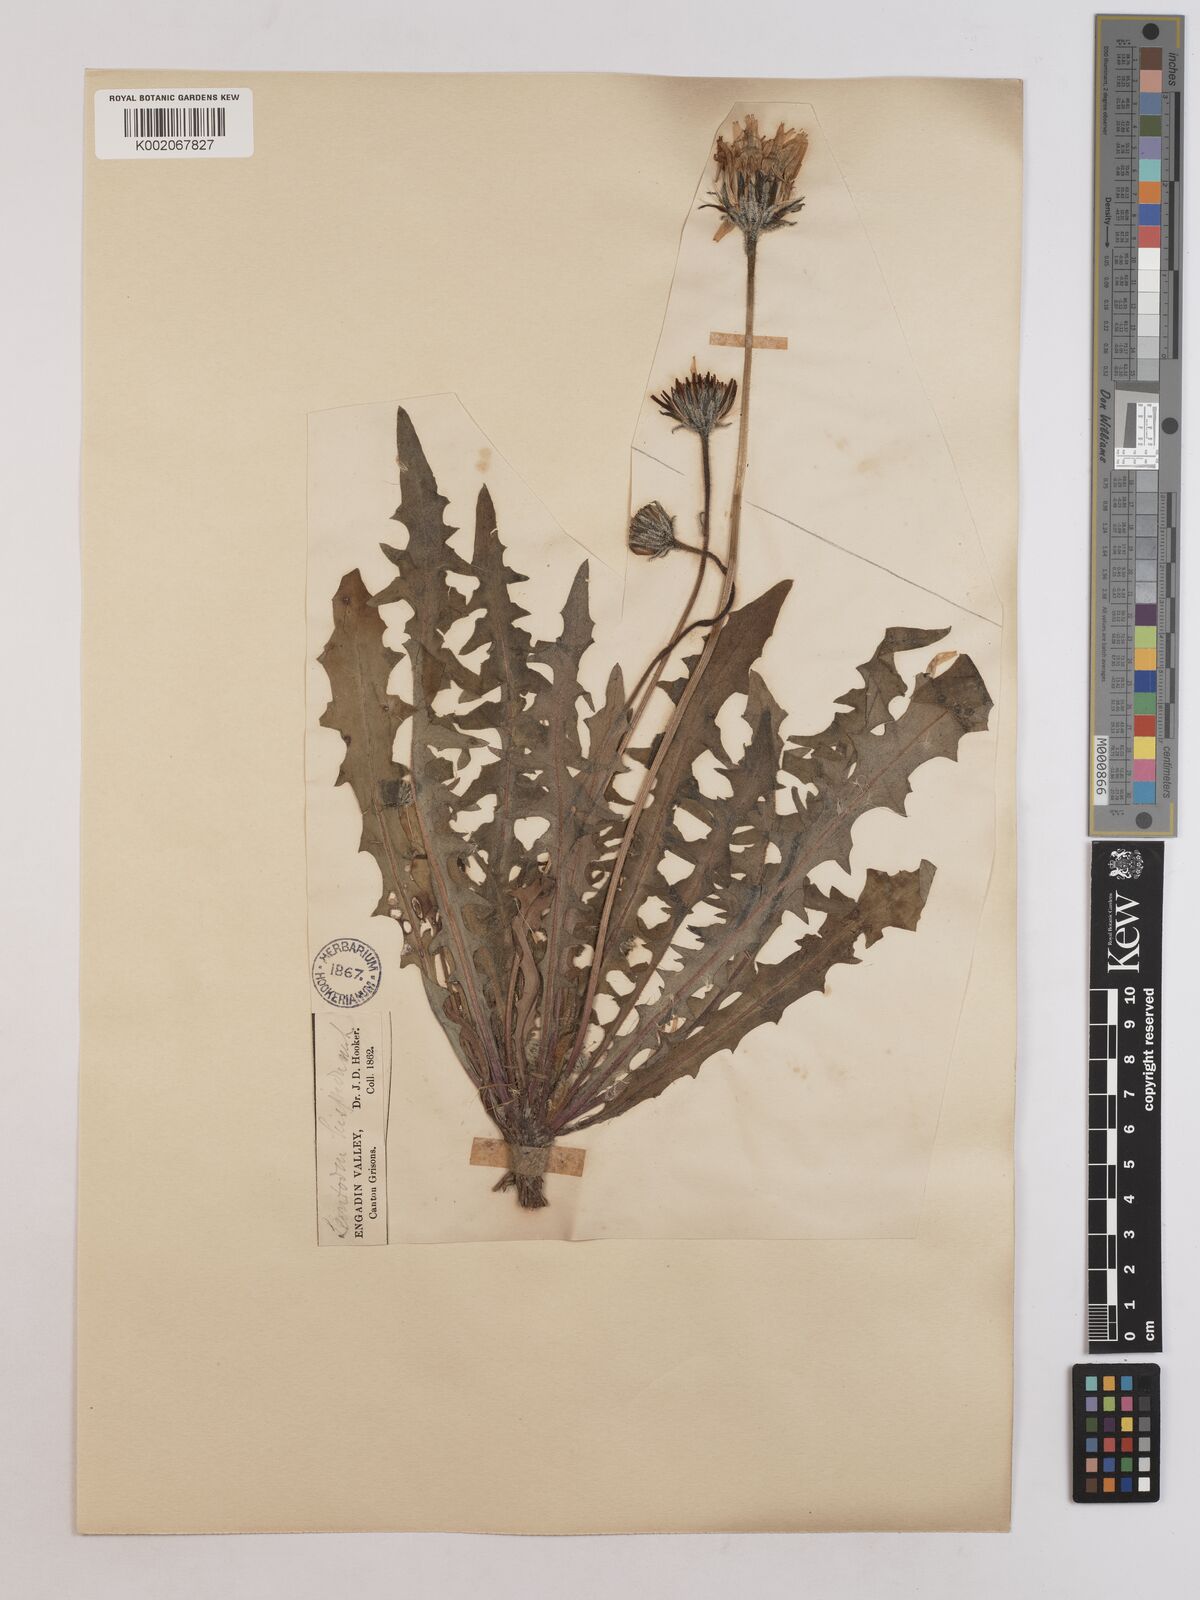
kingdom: Plantae
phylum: Tracheophyta
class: Magnoliopsida
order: Asterales
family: Asteraceae
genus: Leontodon
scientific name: Leontodon hispidus
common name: Rough hawkbit
